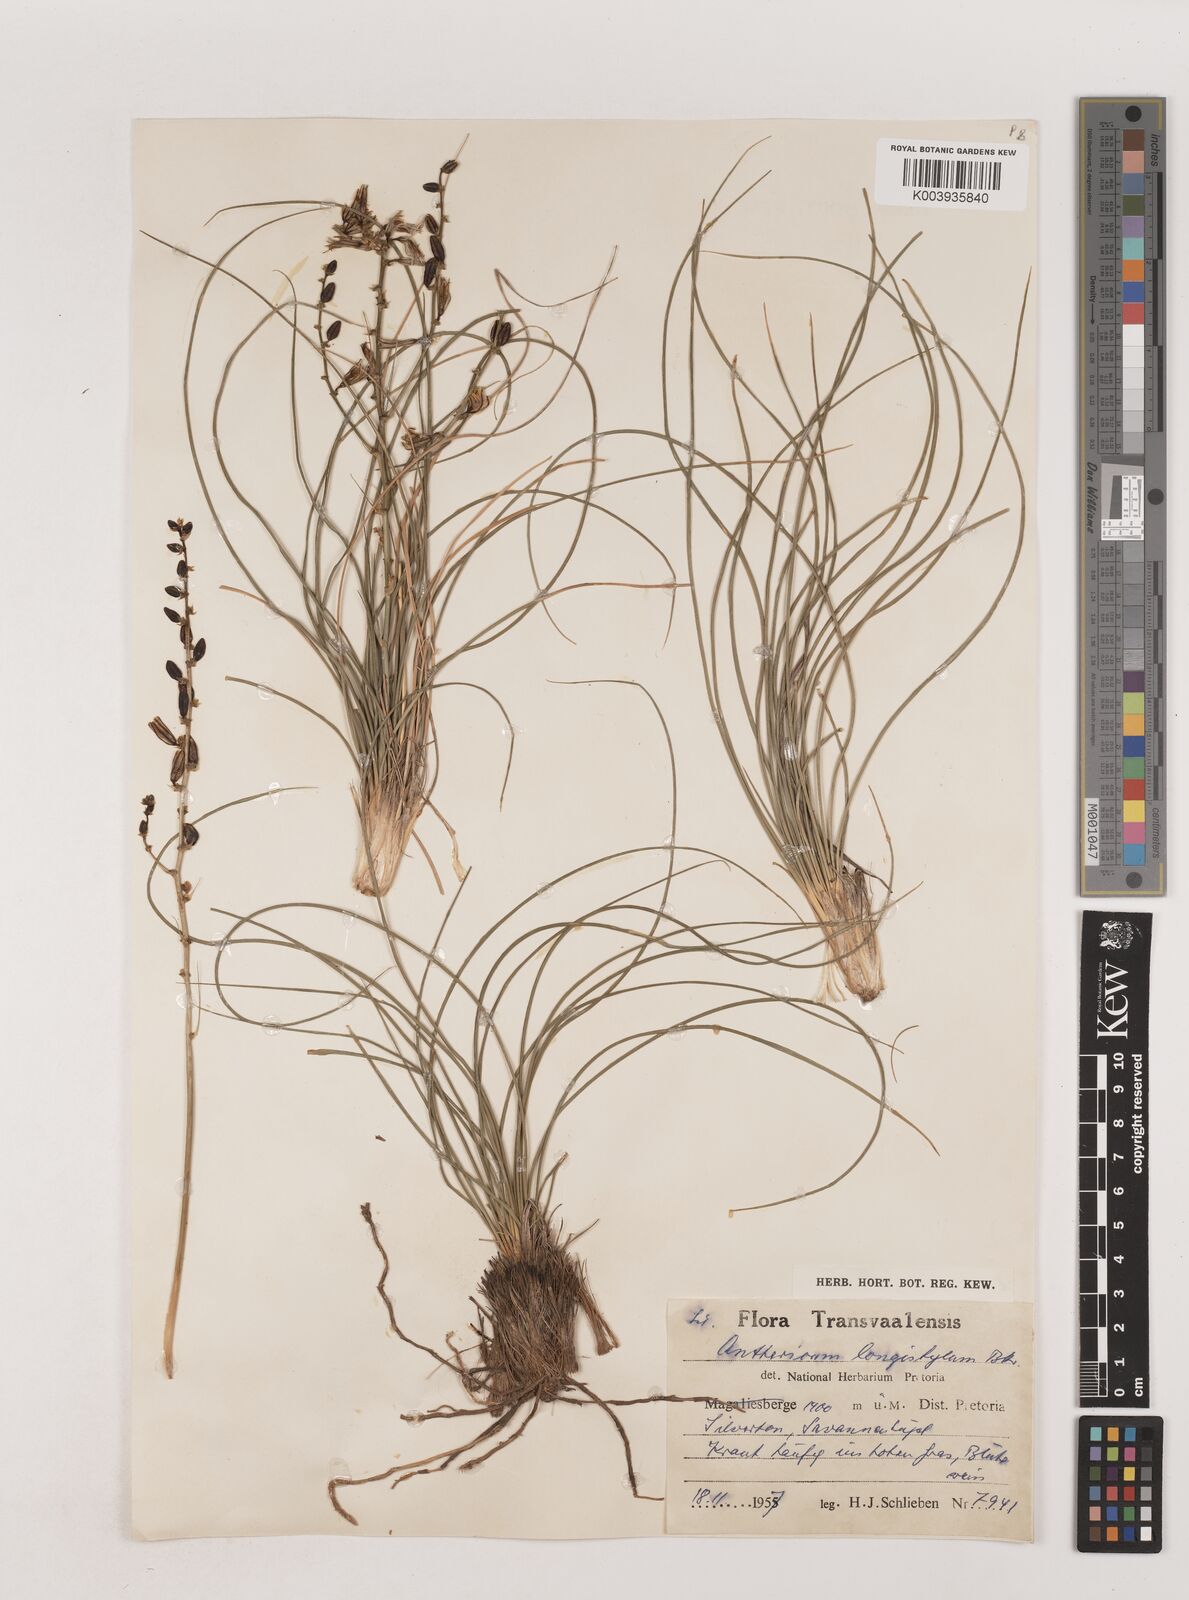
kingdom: Plantae
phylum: Tracheophyta
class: Liliopsida
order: Asparagales
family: Asparagaceae
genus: Chlorophytum
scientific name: Chlorophytum recurvifolium
